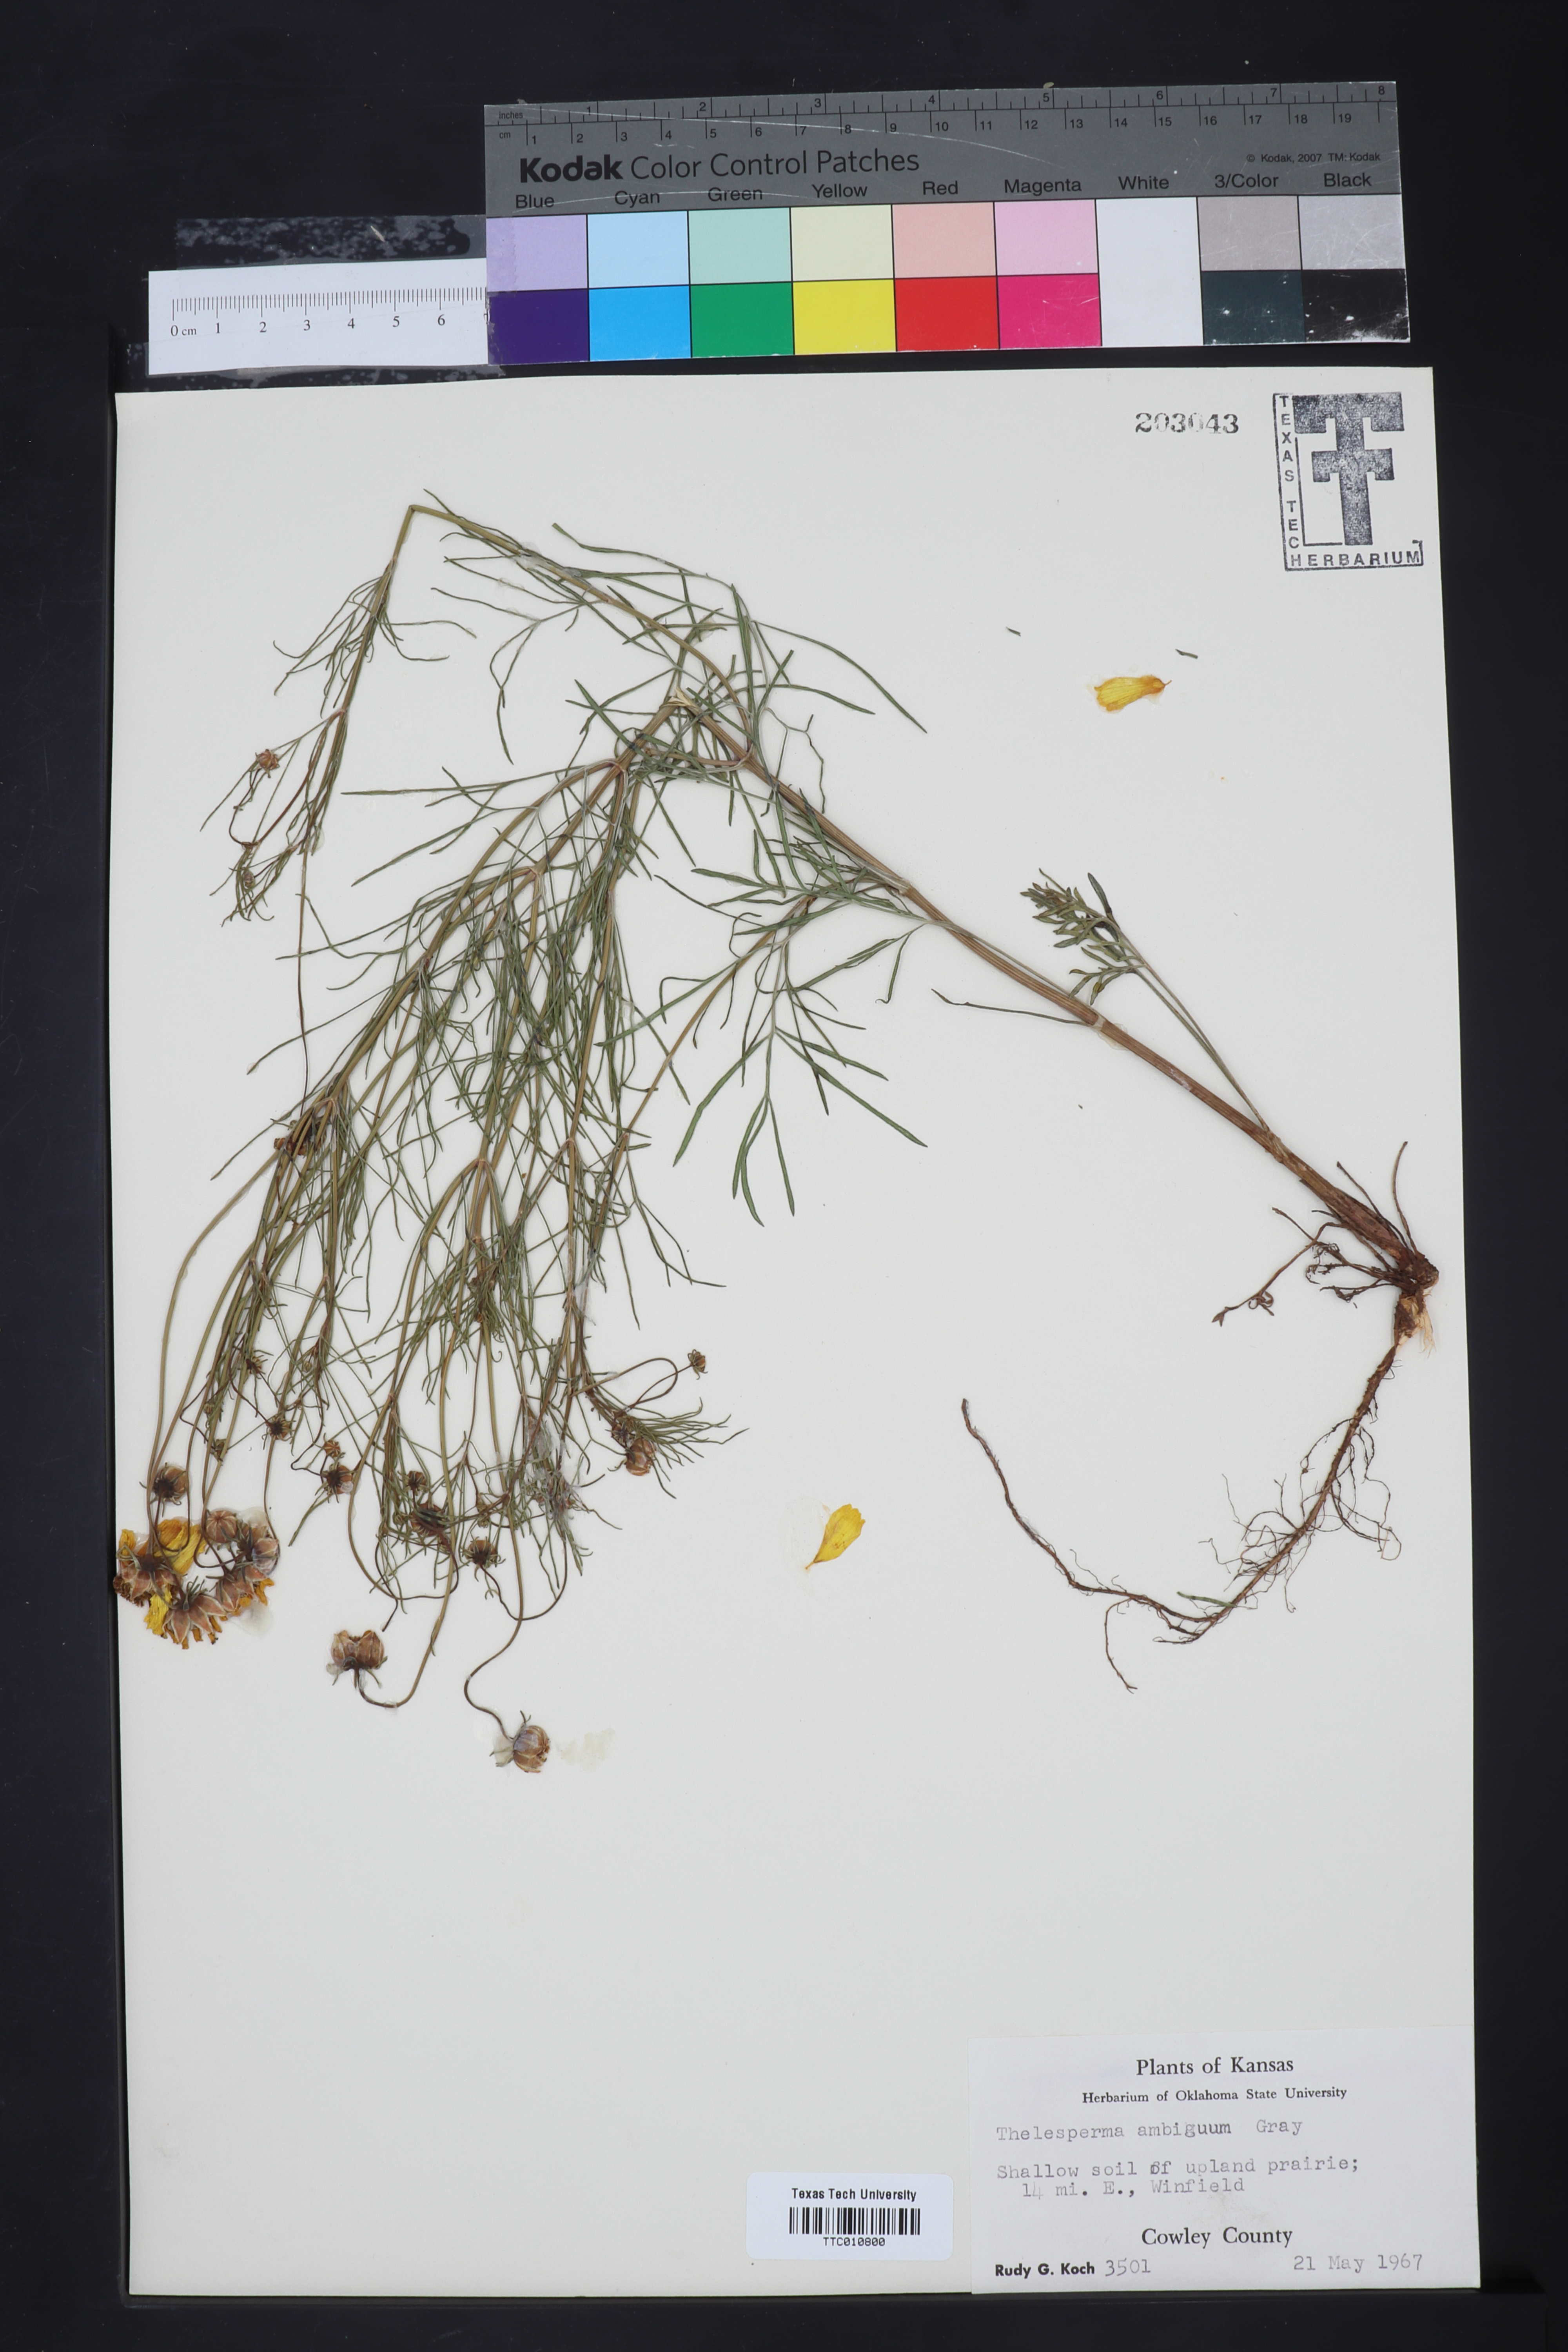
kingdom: Plantae
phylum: Tracheophyta
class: Magnoliopsida
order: Asterales
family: Asteraceae
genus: Thelesperma
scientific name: Thelesperma ambiguum
